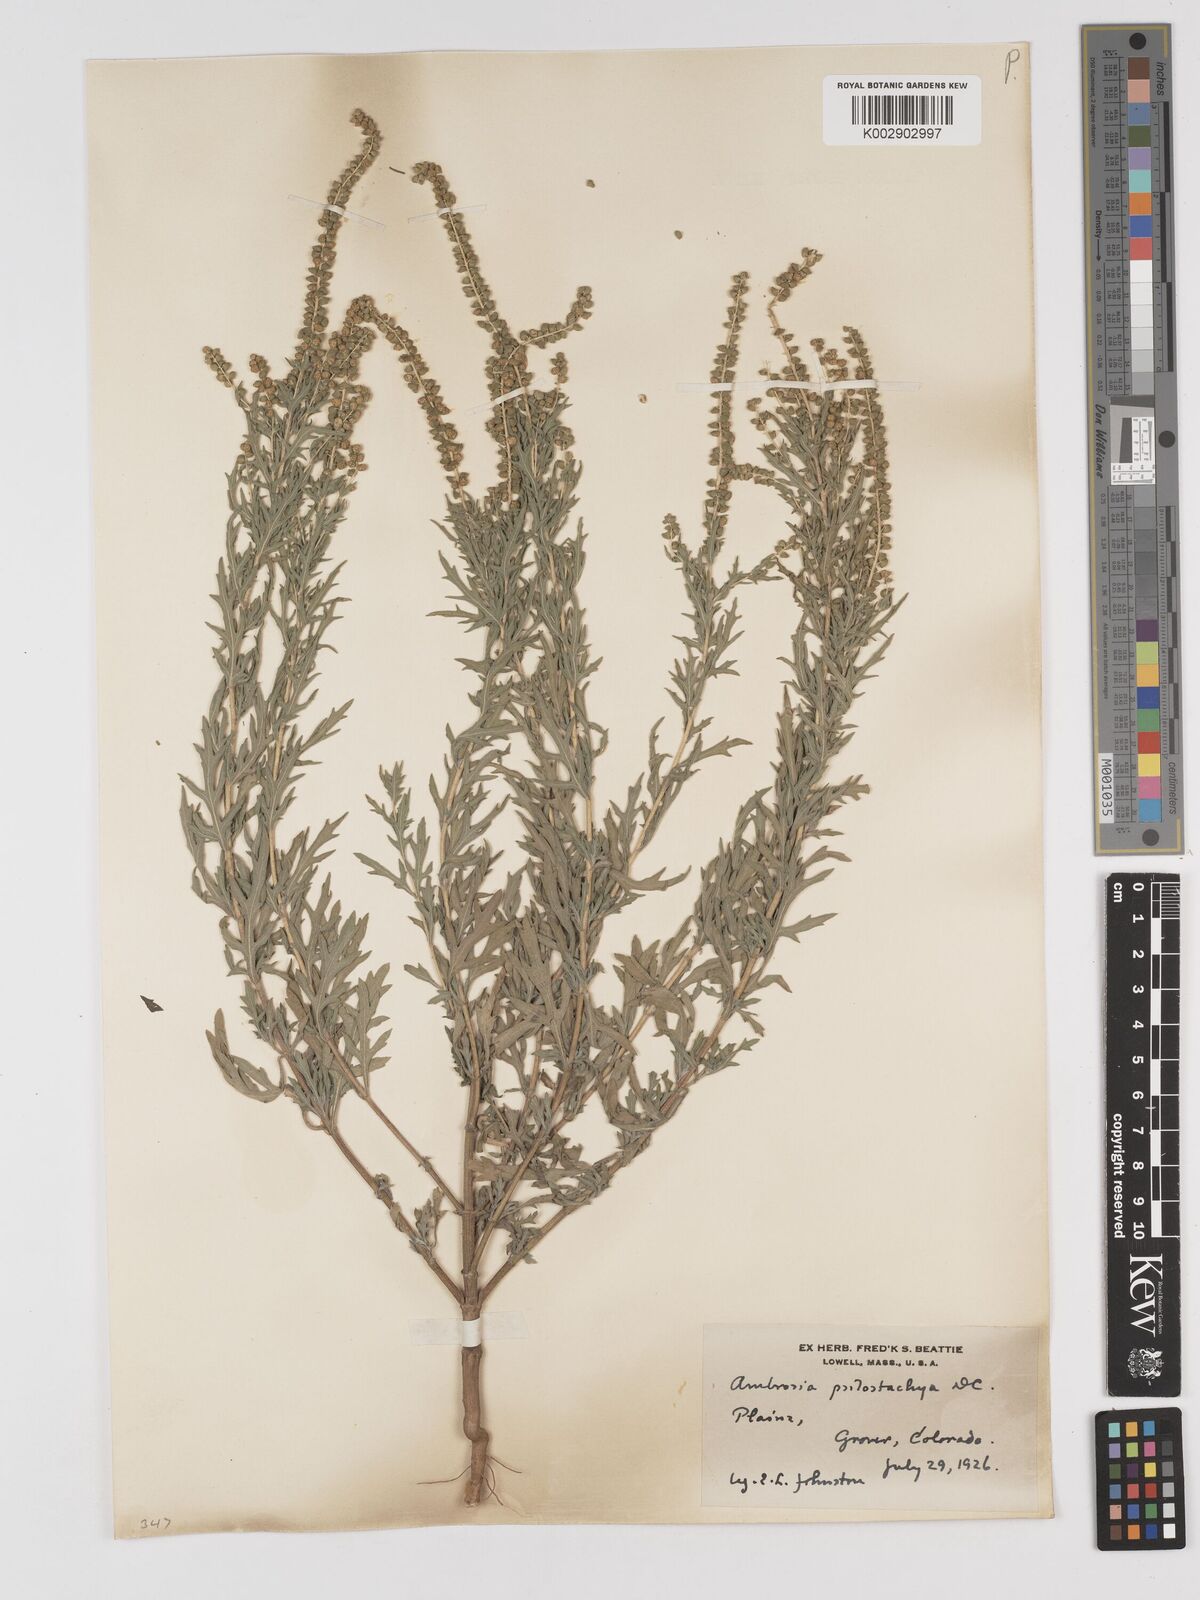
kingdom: Plantae
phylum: Tracheophyta
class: Magnoliopsida
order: Asterales
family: Asteraceae
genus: Ambrosia
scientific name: Ambrosia psilostachya
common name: Perennial ragweed
